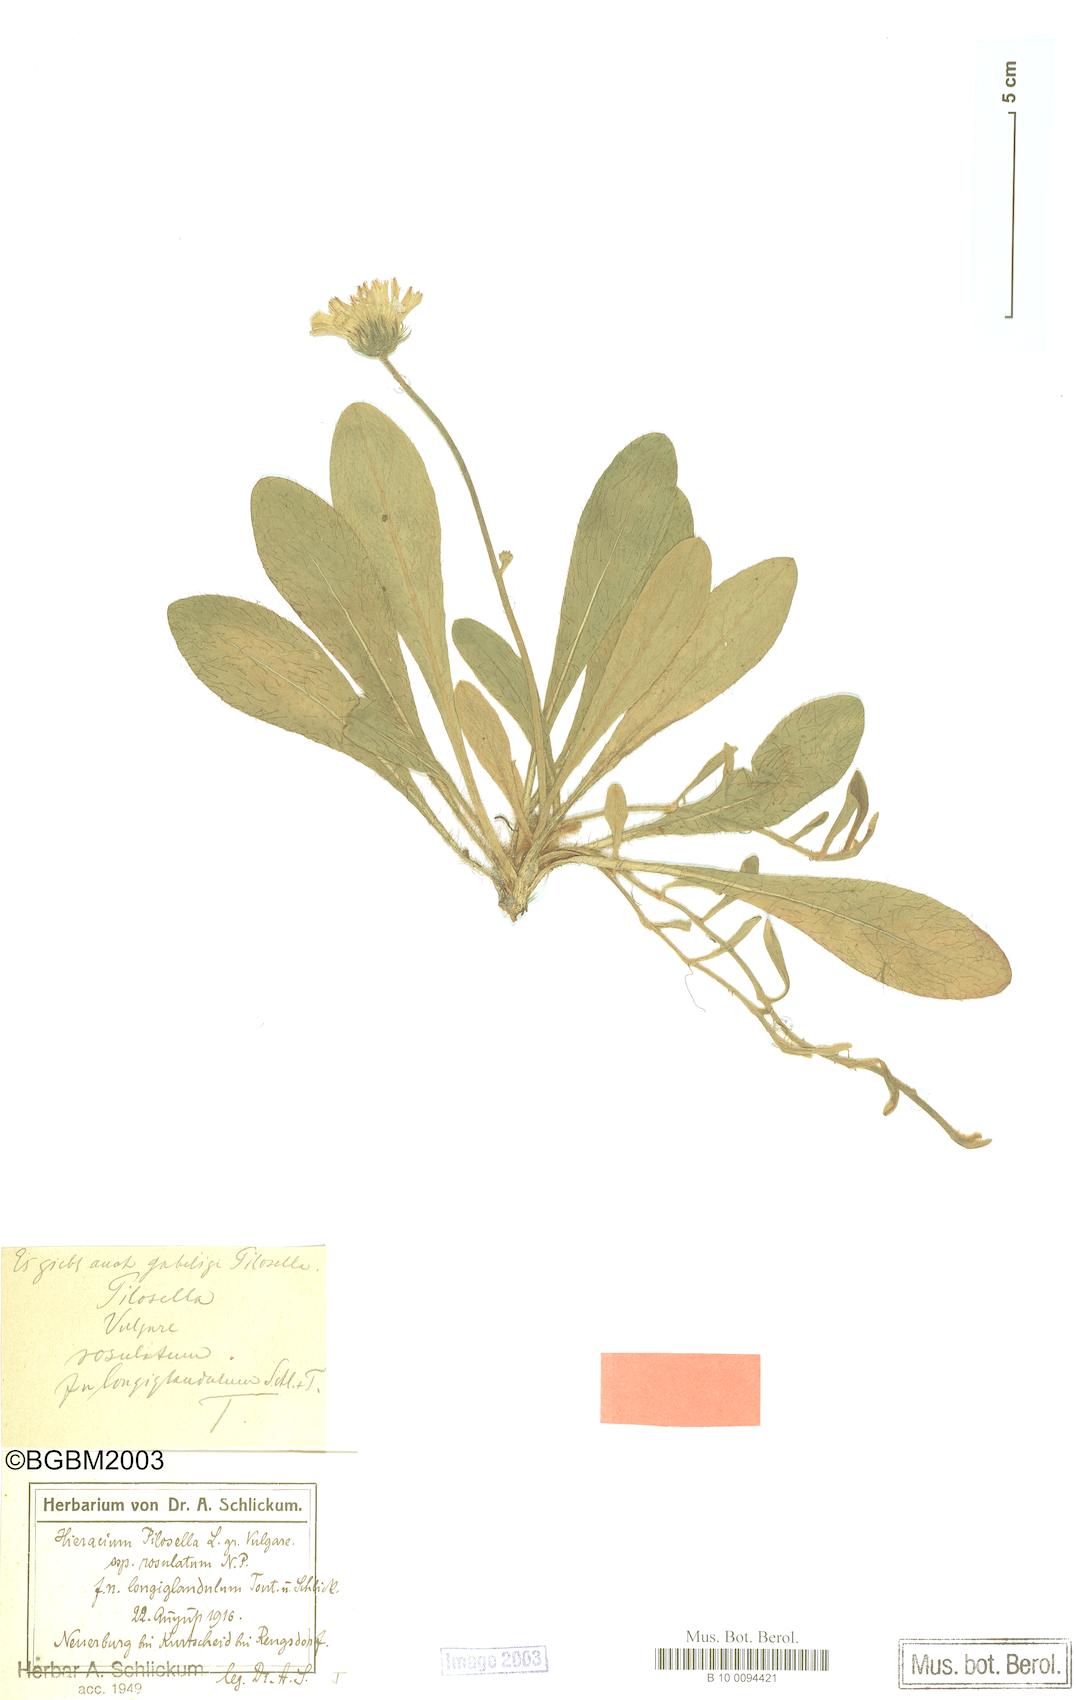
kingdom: Plantae
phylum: Tracheophyta
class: Magnoliopsida
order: Asterales
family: Asteraceae
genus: Pilosella
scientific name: Pilosella officinarum
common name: Mouse-ear hawkweed
